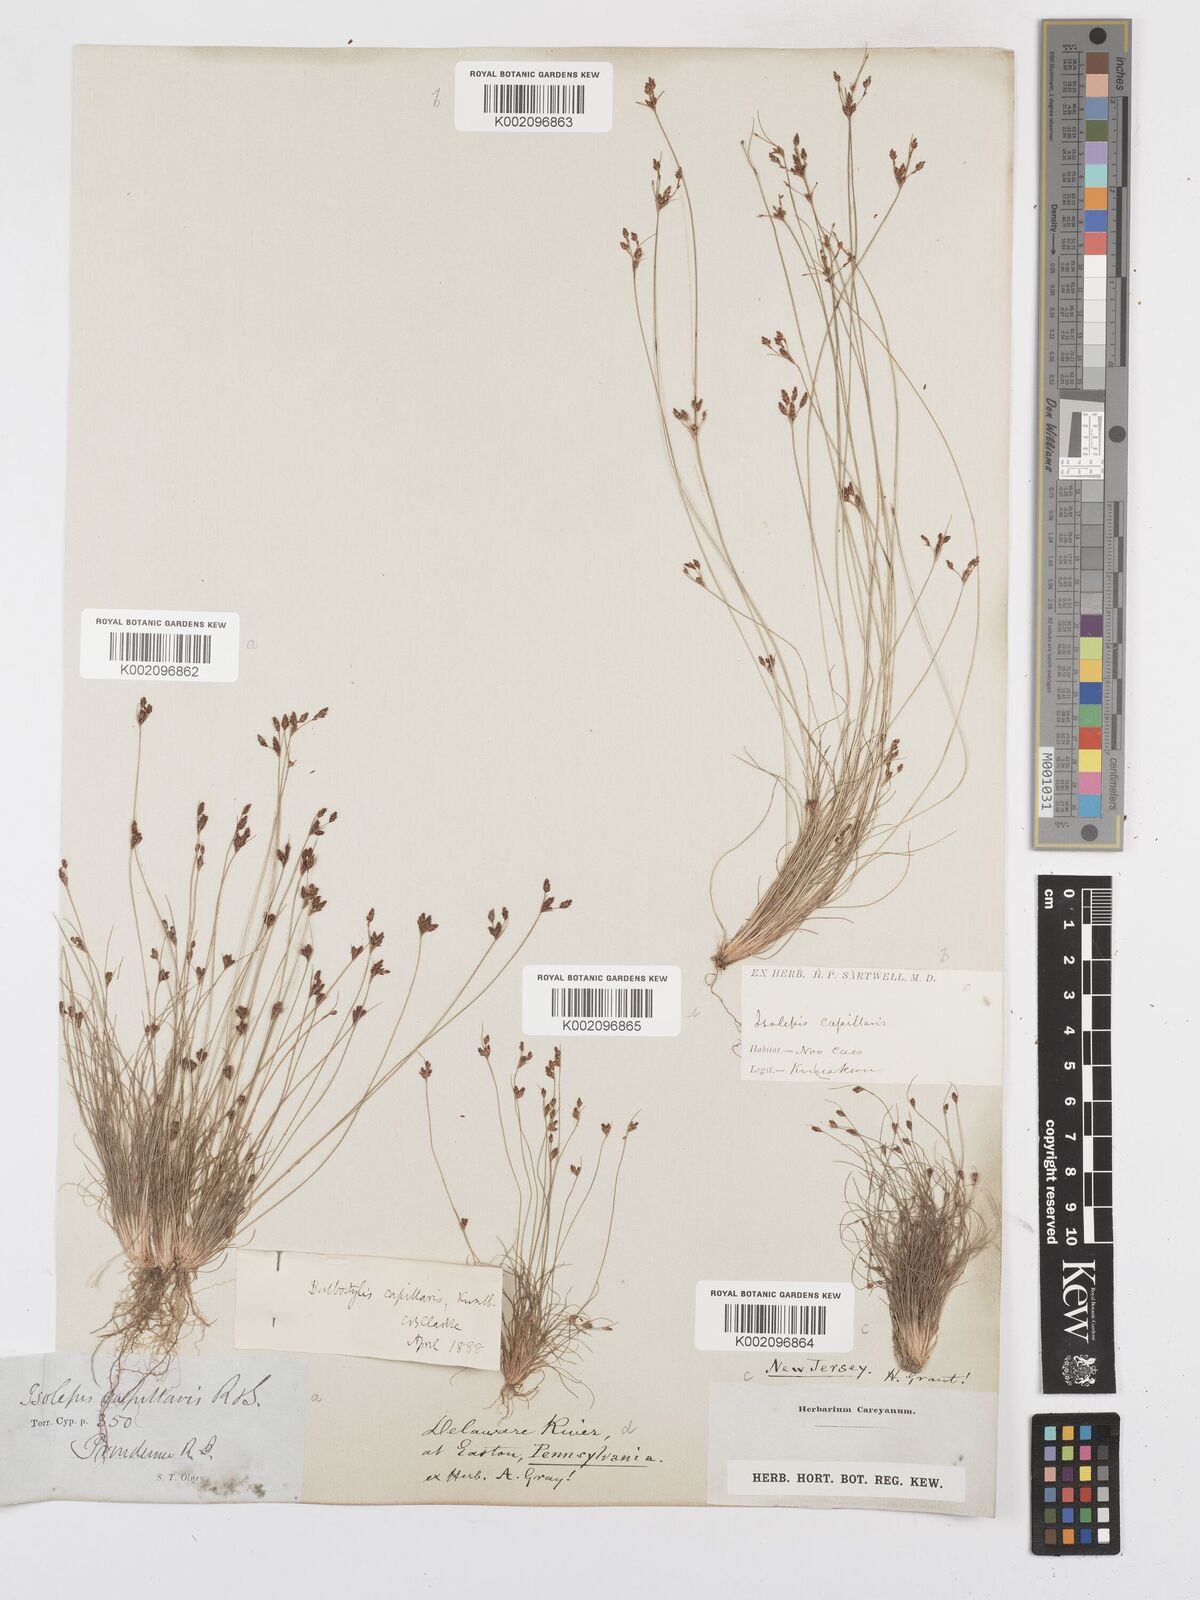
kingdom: Plantae
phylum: Tracheophyta
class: Liliopsida
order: Poales
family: Cyperaceae
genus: Bulbostylis
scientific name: Bulbostylis capillaris
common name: Densetuft hairsedge
